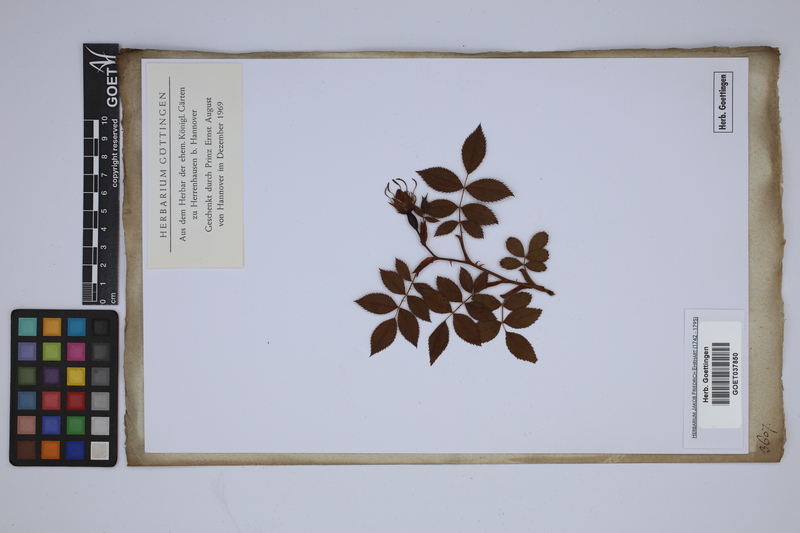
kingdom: Plantae
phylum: Tracheophyta
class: Magnoliopsida
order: Rosales
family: Rosaceae
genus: Rosa
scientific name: Rosa indica
